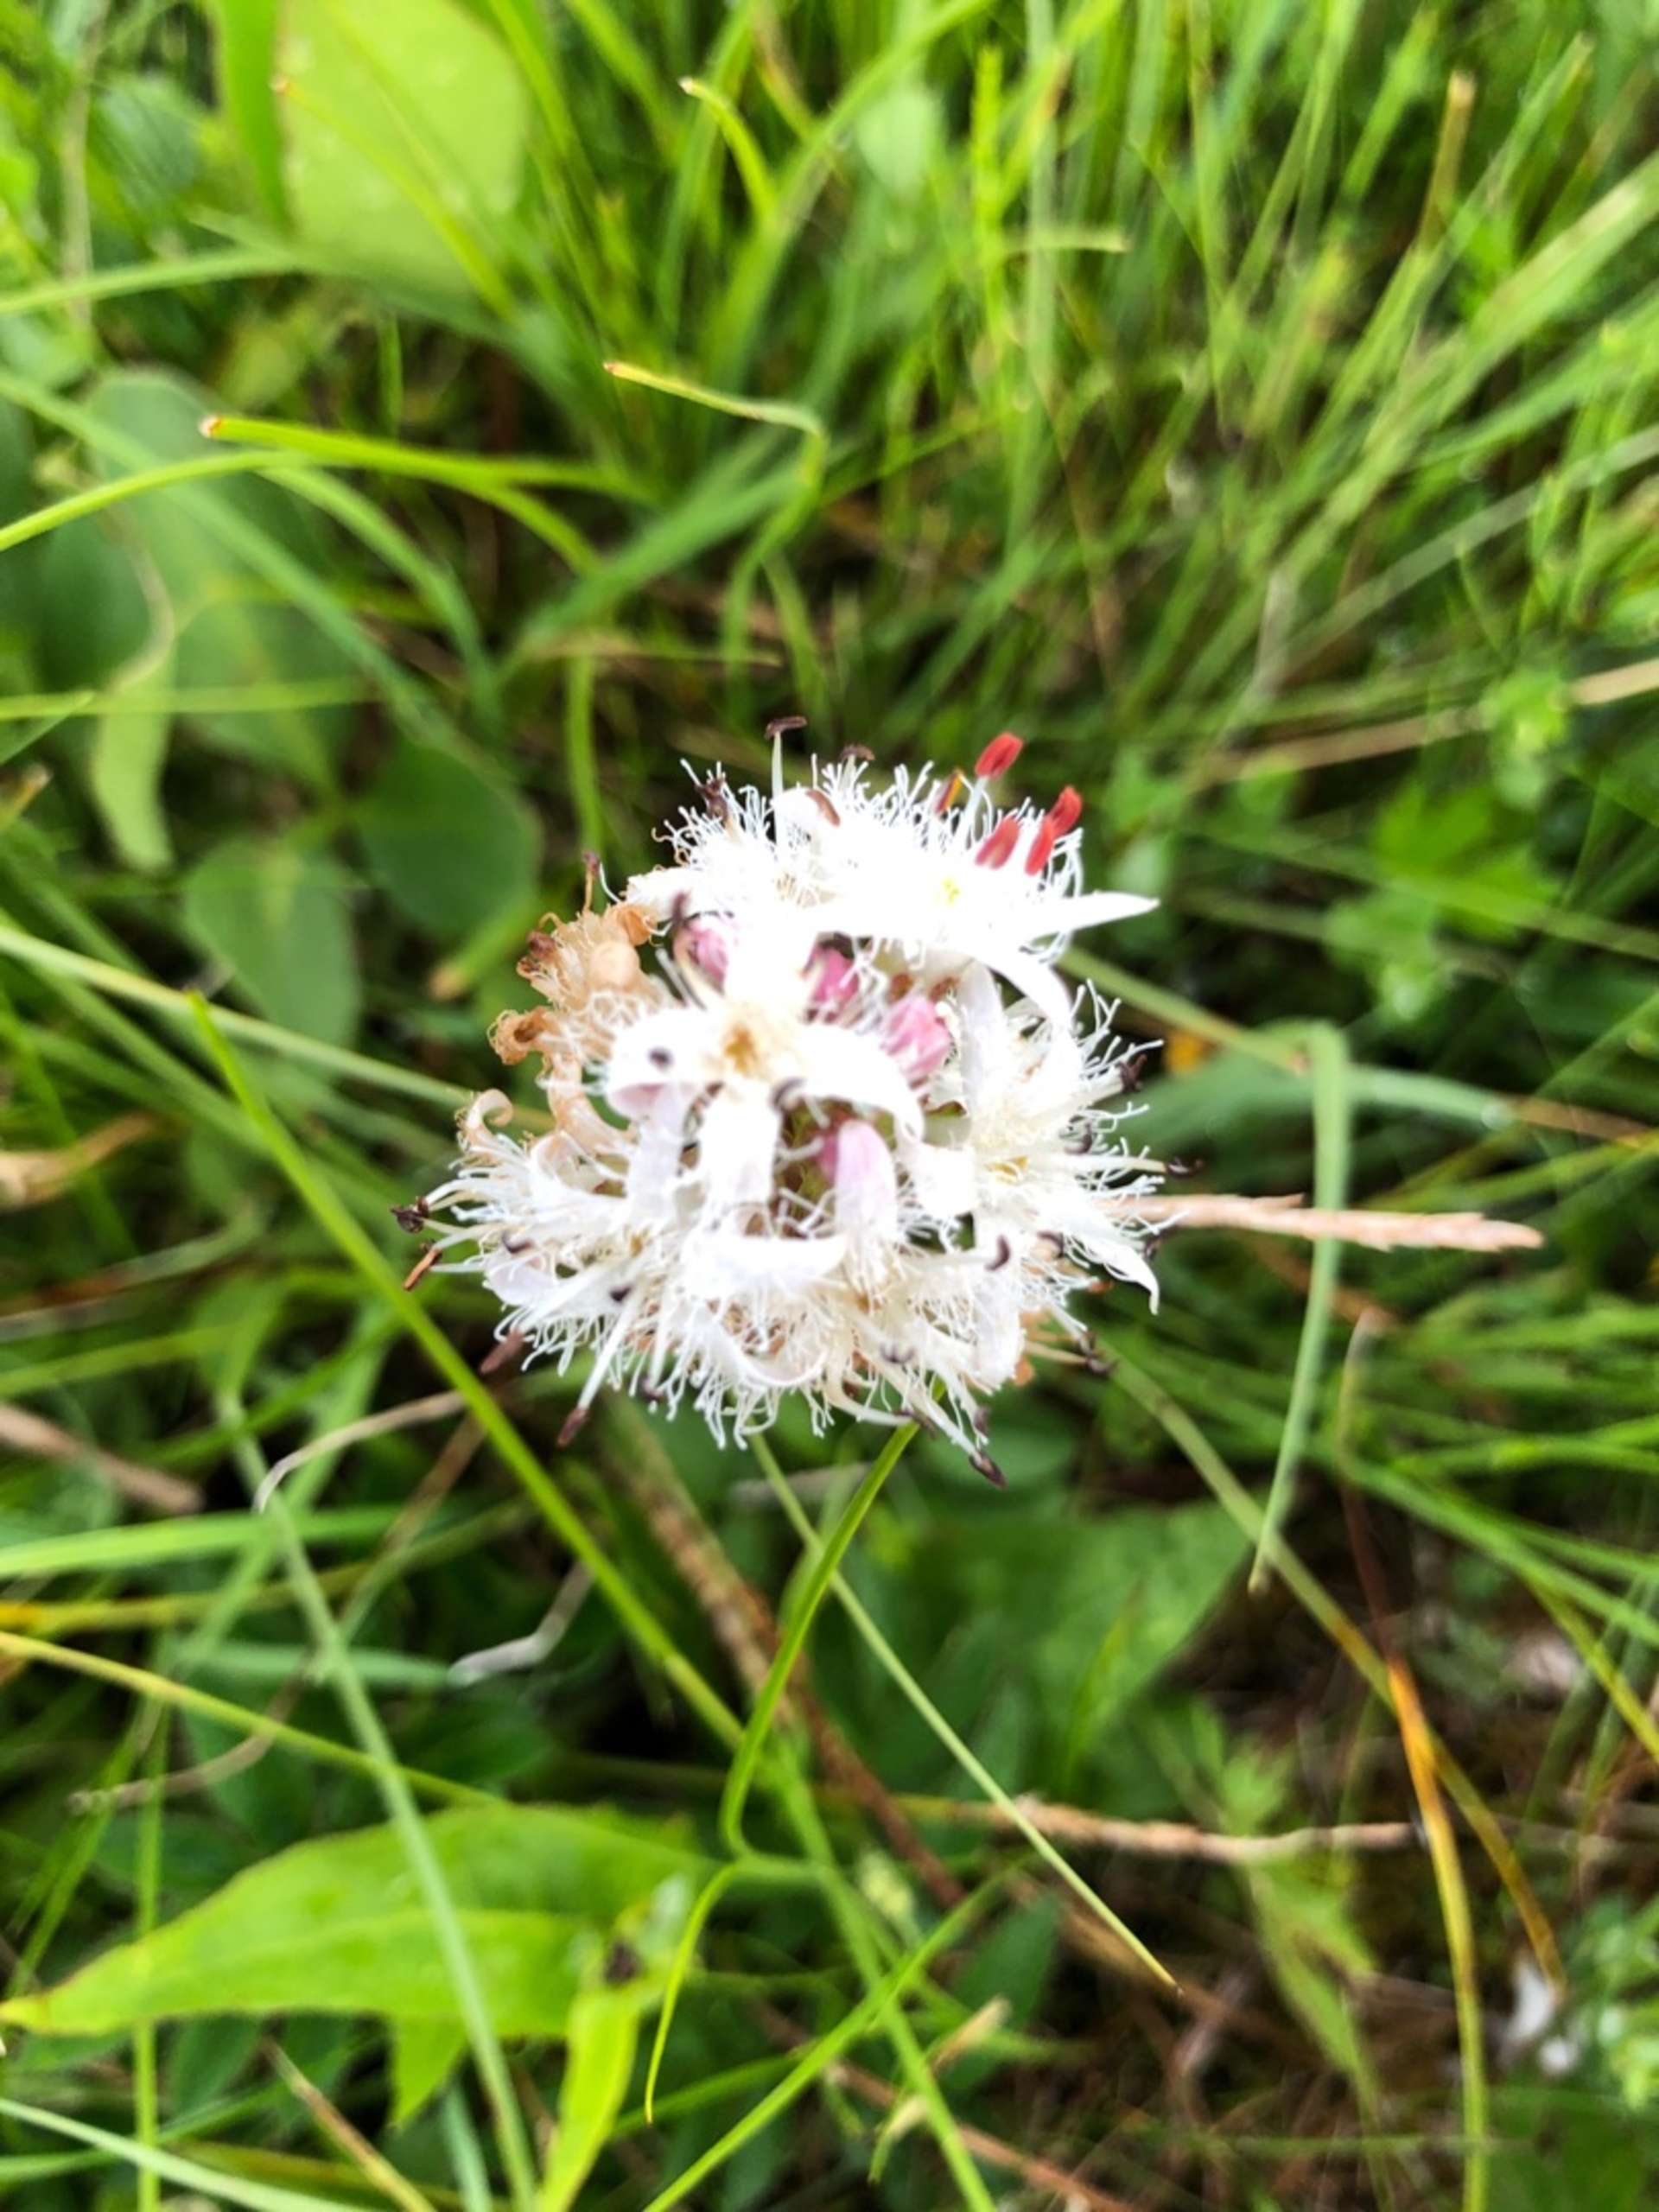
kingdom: Plantae
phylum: Tracheophyta
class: Magnoliopsida
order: Asterales
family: Menyanthaceae
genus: Menyanthes
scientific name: Menyanthes trifoliata
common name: Bukkeblad
